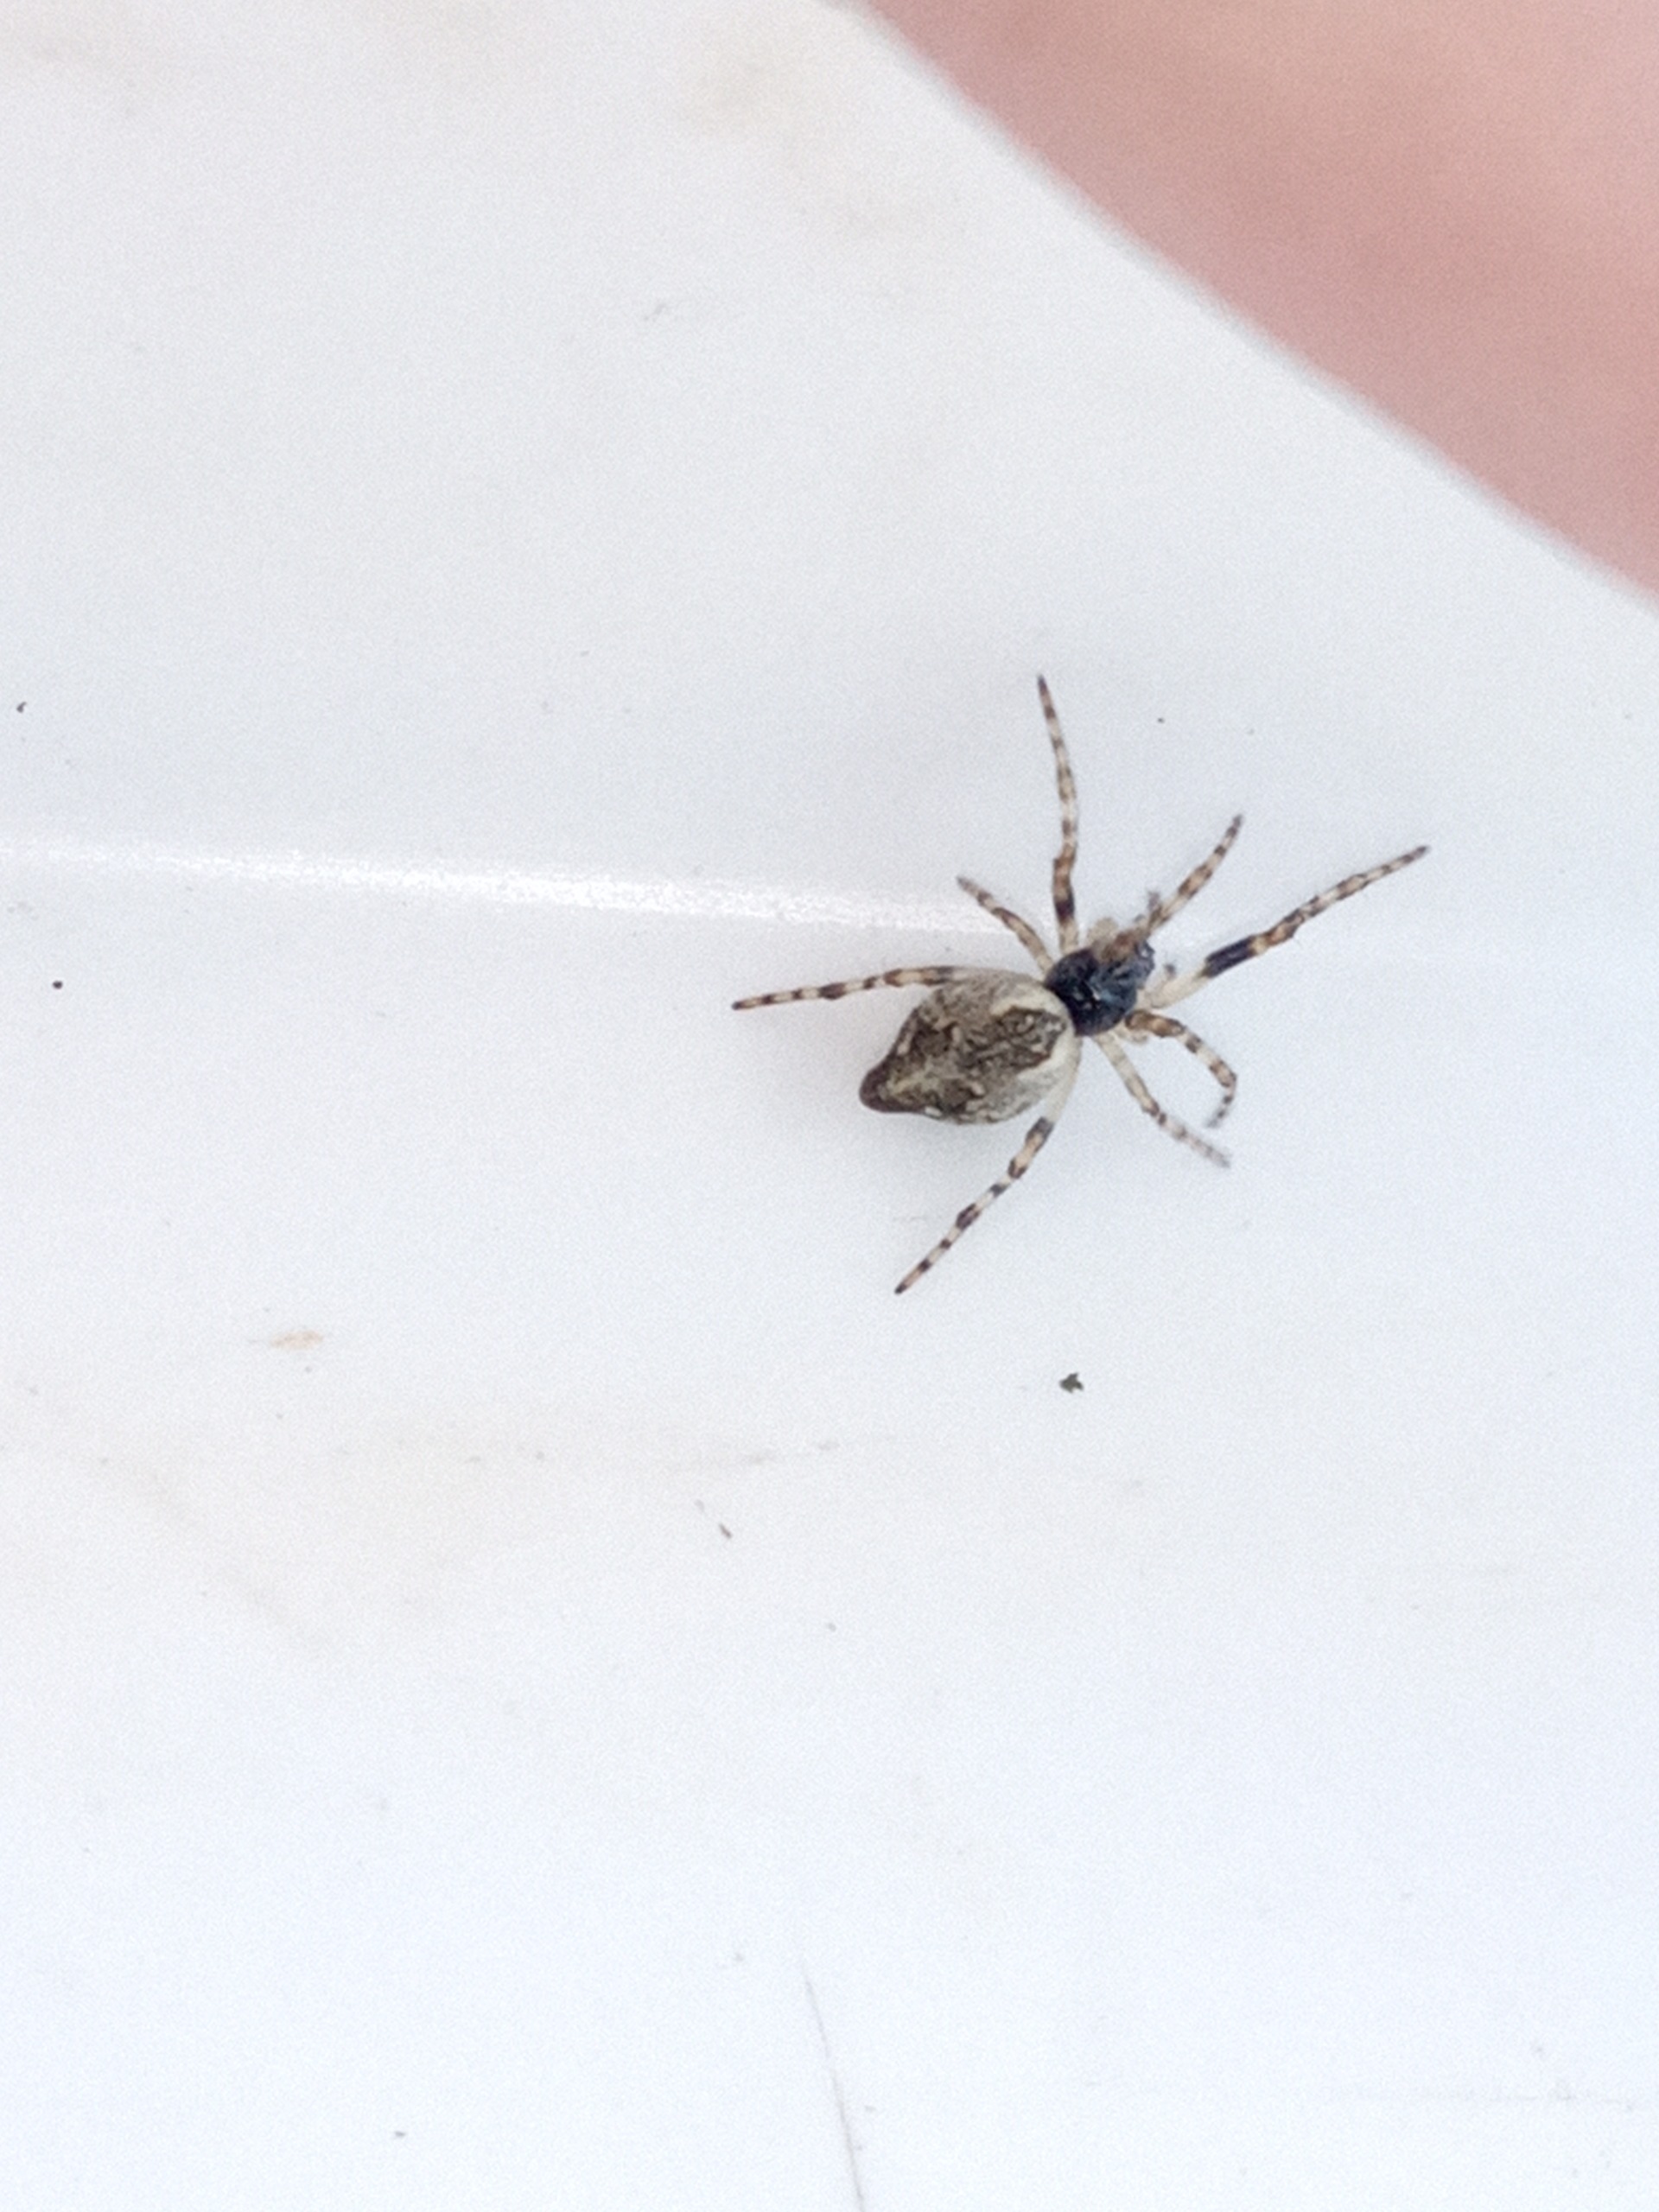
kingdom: Animalia
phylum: Arthropoda
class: Arachnida
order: Araneae
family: Araneidae
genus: Cyclosa
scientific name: Cyclosa conica
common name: Keglerumpe
